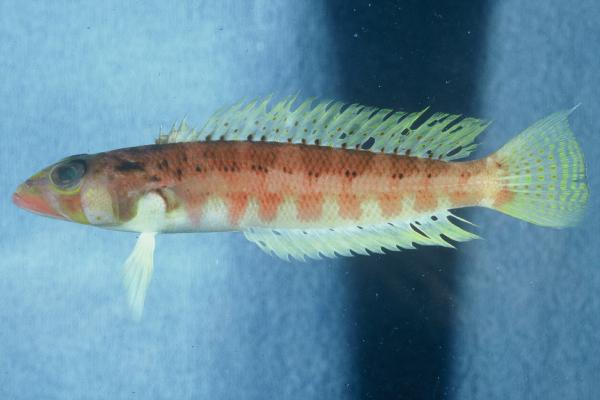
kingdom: Animalia
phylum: Chordata
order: Perciformes
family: Pinguipedidae
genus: Parapercis
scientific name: Parapercis kentingensis
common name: Kenting sandperch
